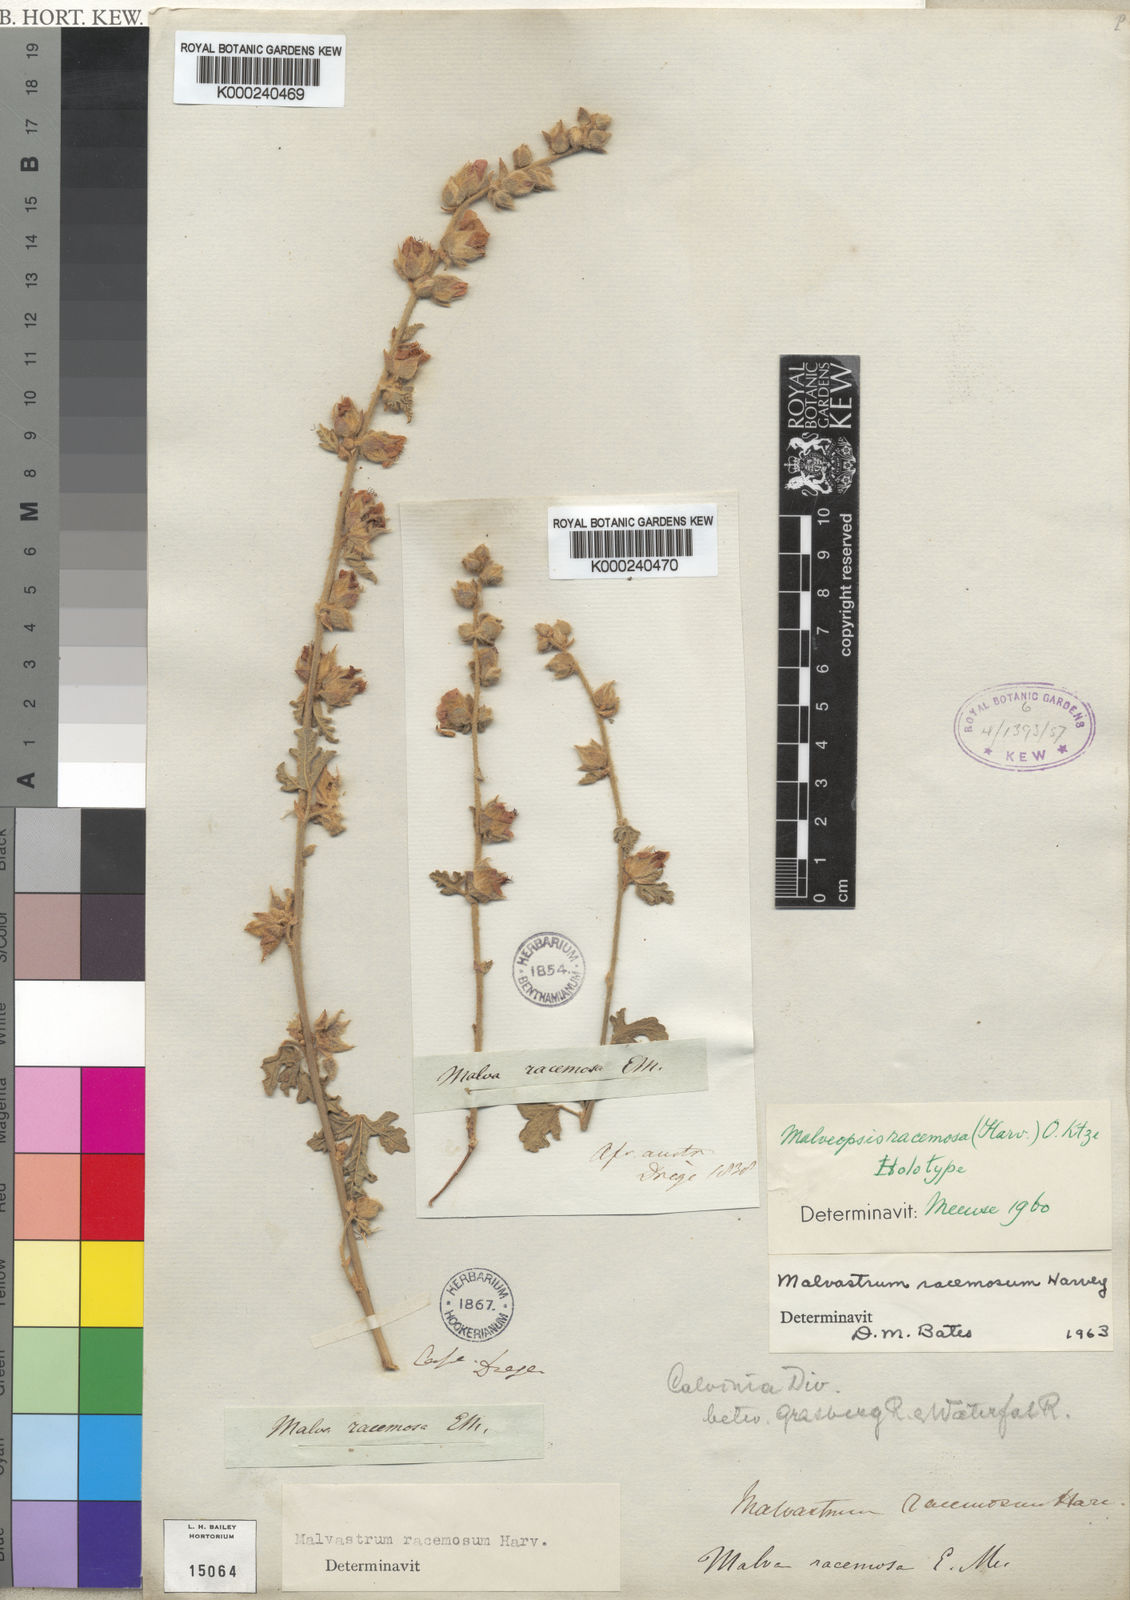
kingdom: Plantae
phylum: Tracheophyta
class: Magnoliopsida
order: Malvales
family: Malvaceae
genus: Anisodontea
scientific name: Anisodontea racemosa
